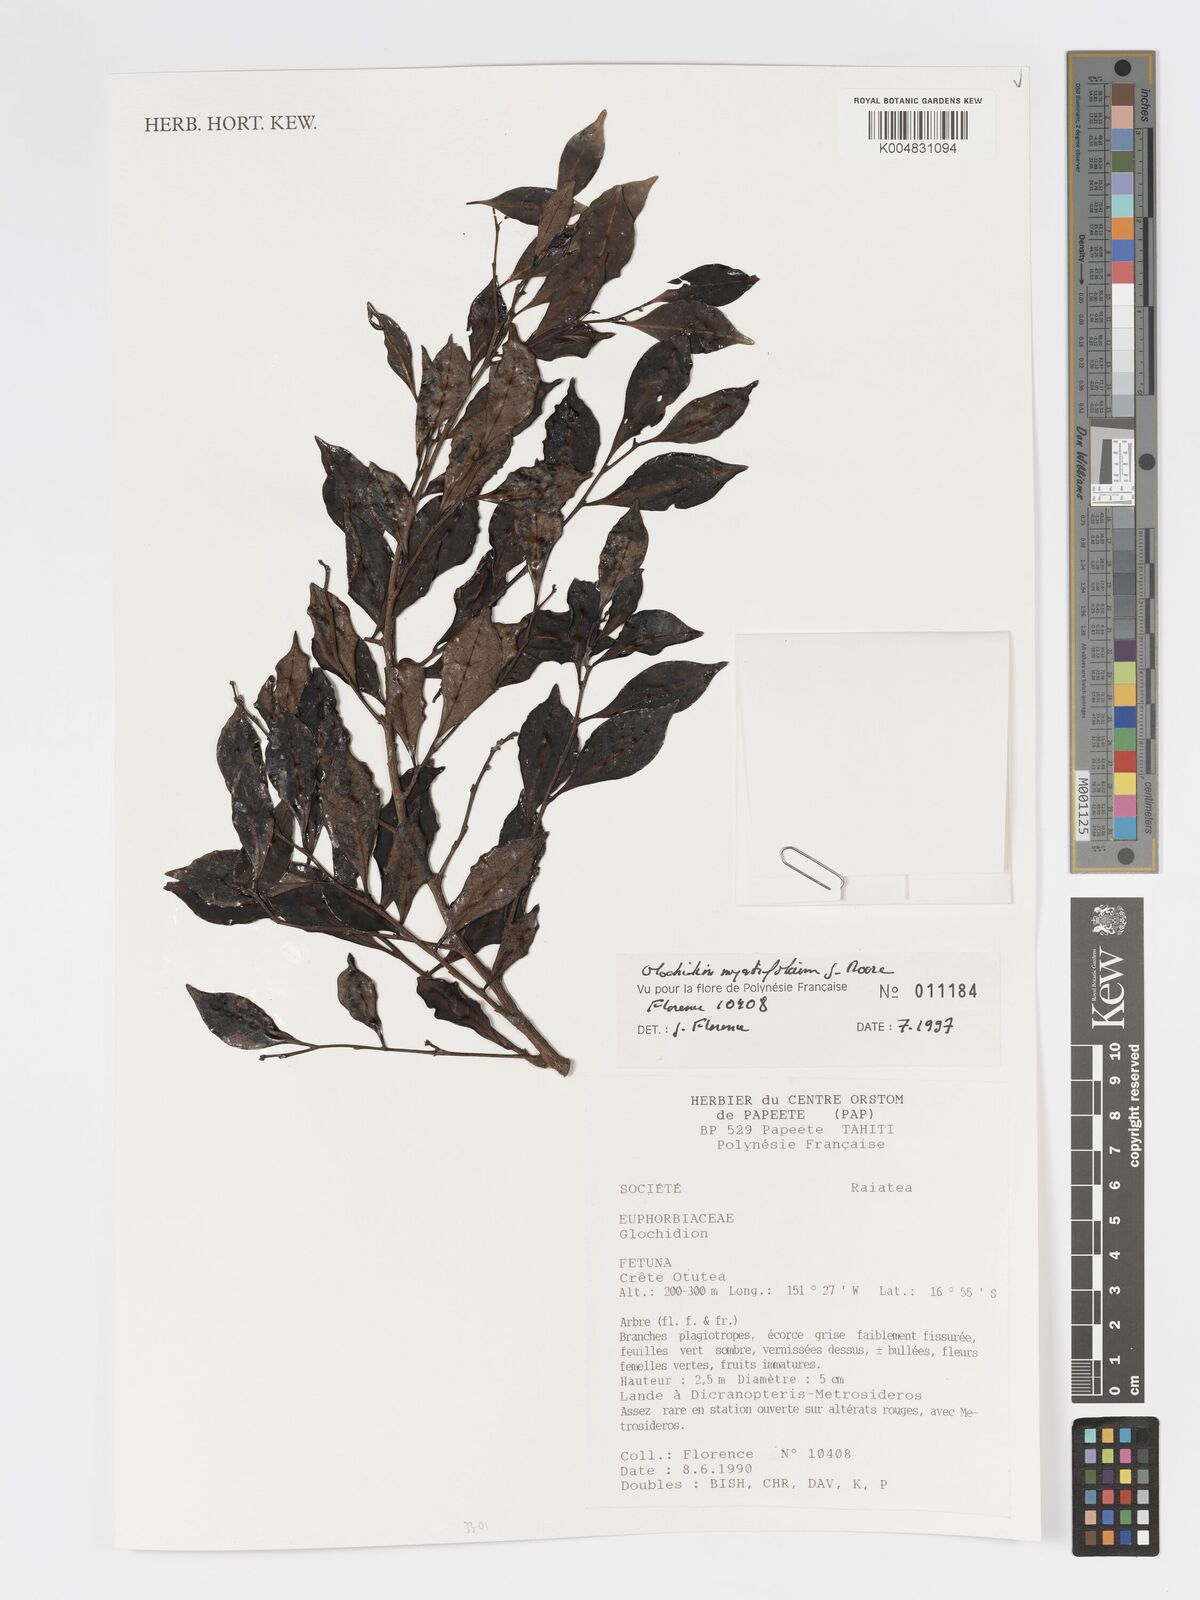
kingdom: Plantae
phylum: Tracheophyta
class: Magnoliopsida
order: Malpighiales
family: Phyllanthaceae
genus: Glochidion
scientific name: Glochidion myrtifolium
